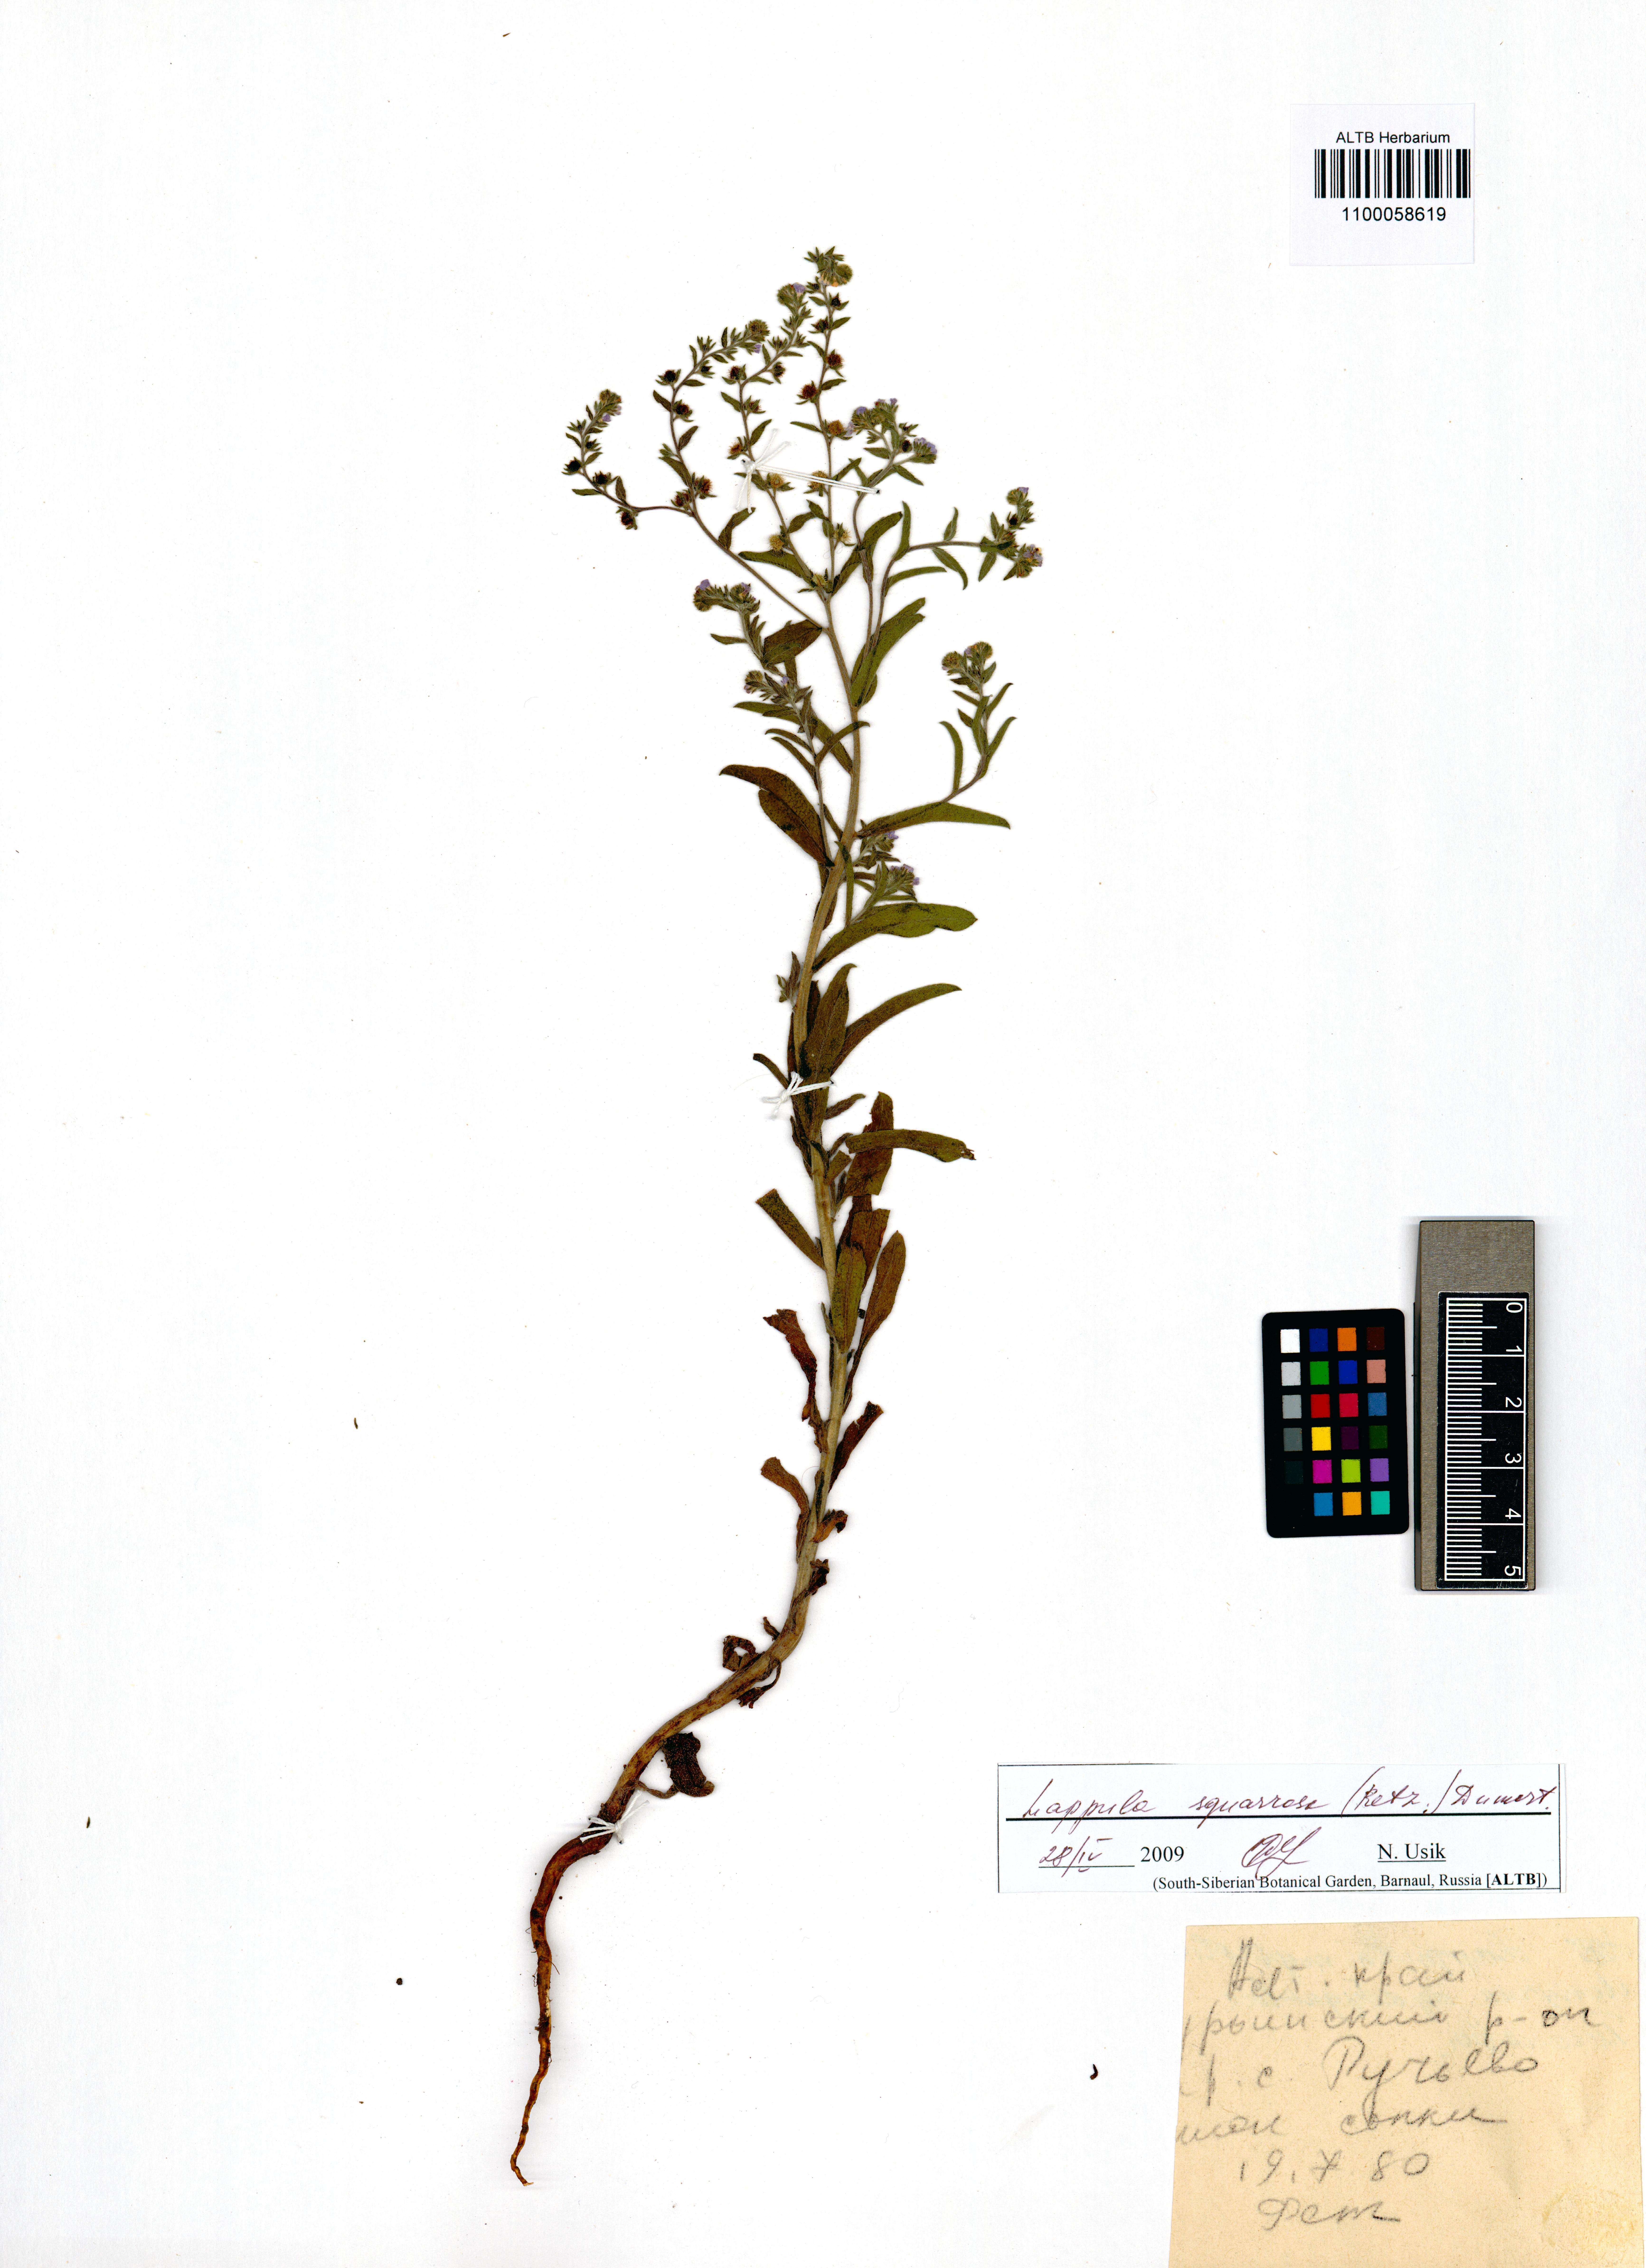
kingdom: Plantae
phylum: Tracheophyta
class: Magnoliopsida
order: Boraginales
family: Boraginaceae
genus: Lappula
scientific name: Lappula squarrosa
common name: European stickseed
